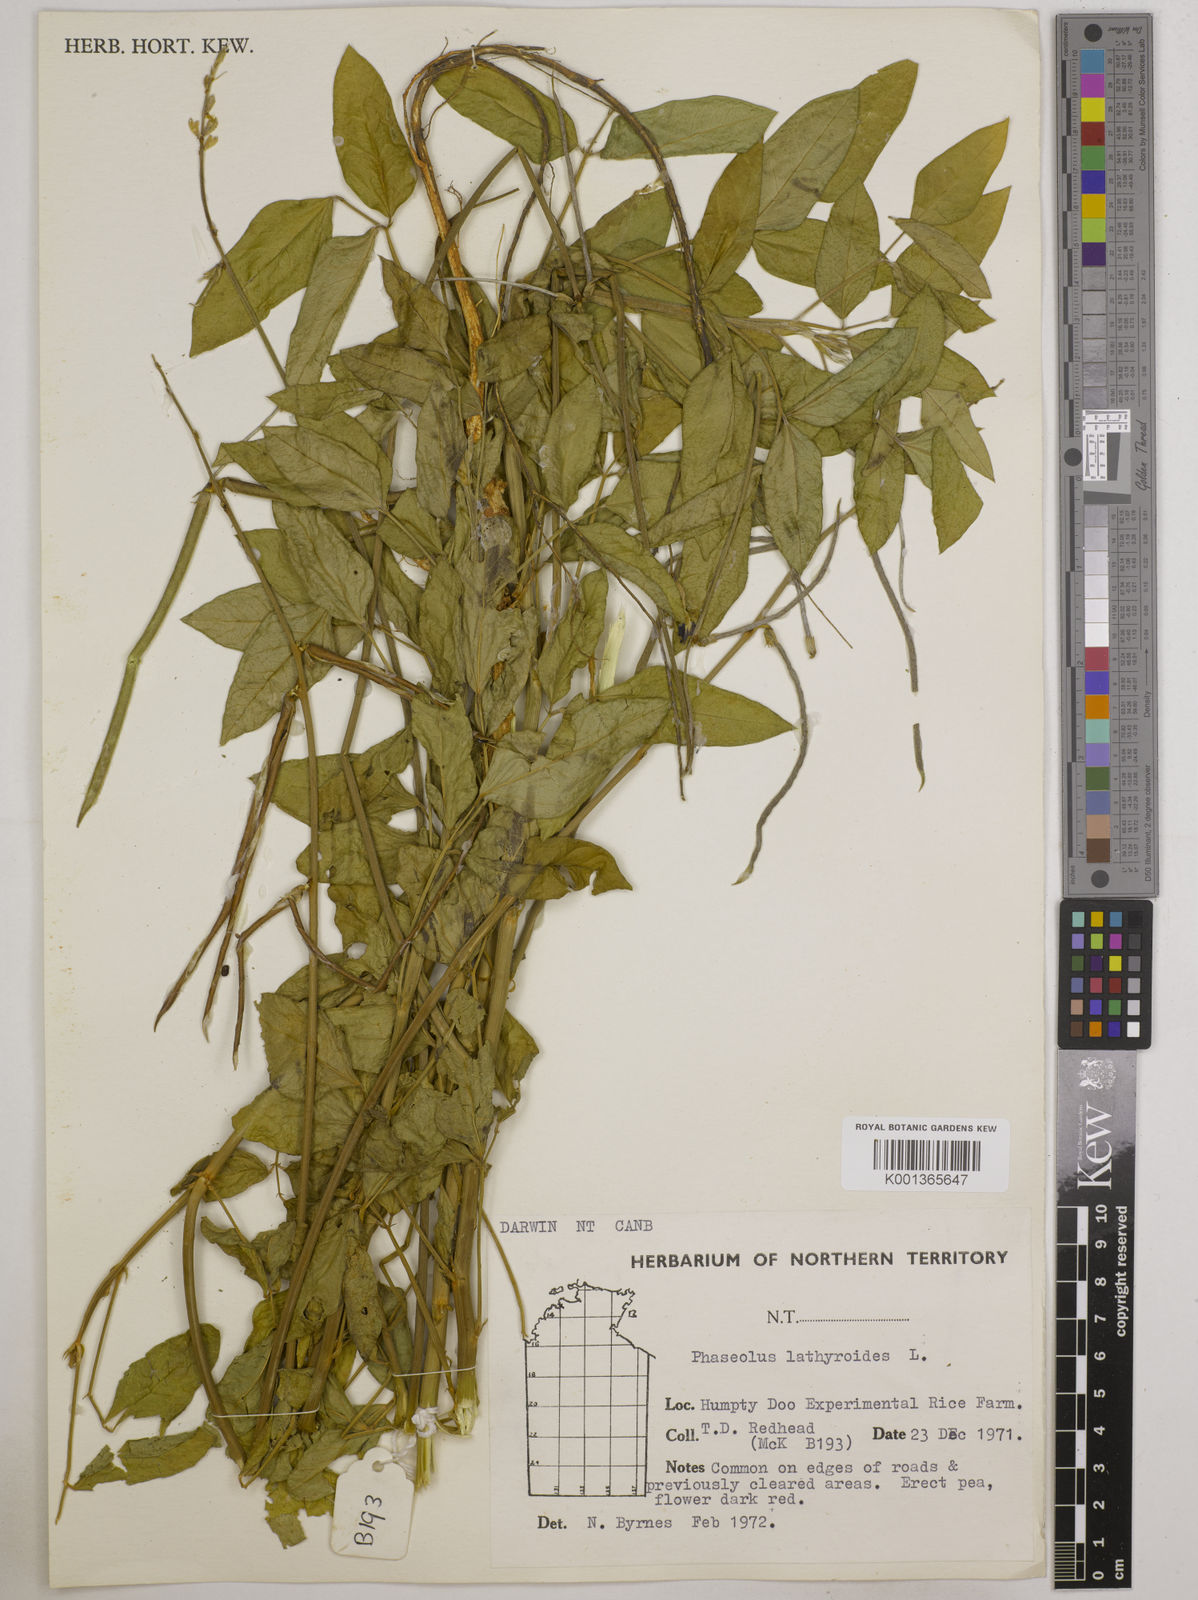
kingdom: Plantae
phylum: Tracheophyta
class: Magnoliopsida
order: Fabales
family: Fabaceae
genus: Macroptilium
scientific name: Macroptilium lathyroides
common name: Wild bushbean
